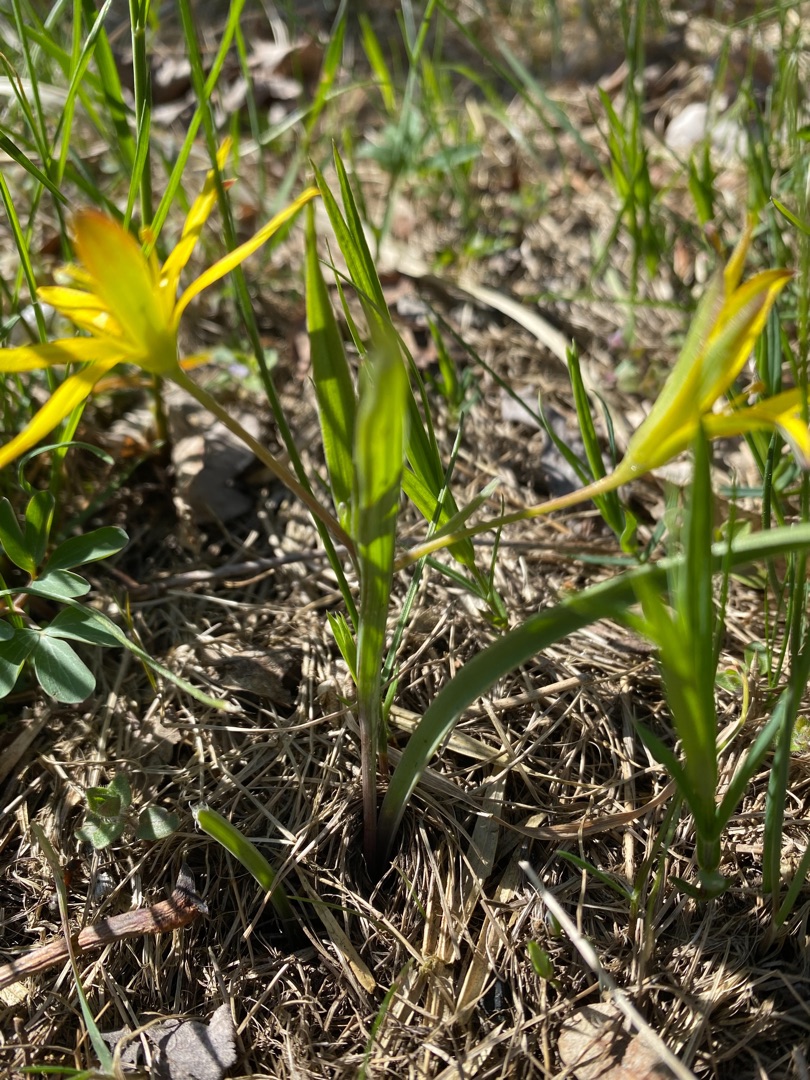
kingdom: Plantae
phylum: Tracheophyta
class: Liliopsida
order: Liliales
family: Liliaceae
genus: Gagea
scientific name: Gagea pratensis
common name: Eng-guldstjerne
